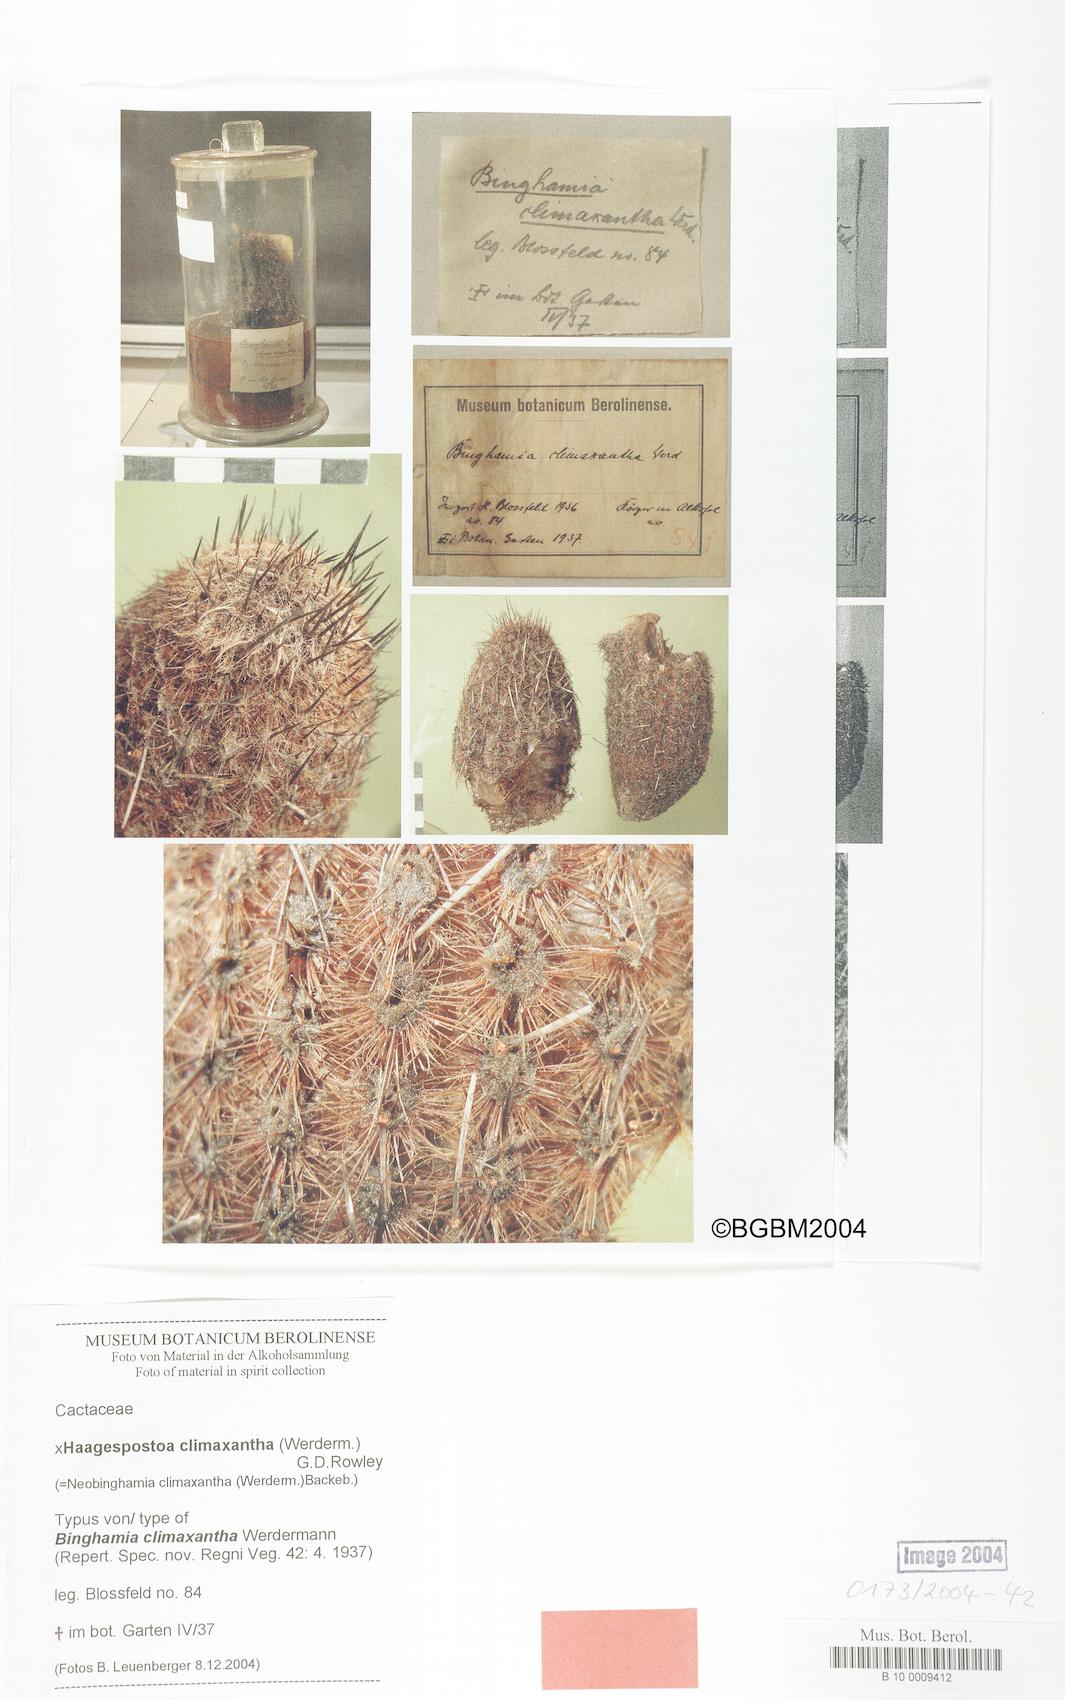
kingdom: Plantae
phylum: Tracheophyta
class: Magnoliopsida
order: Caryophyllales
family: Cactaceae
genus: Haagespostoa
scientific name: Haagespostoa climaxantha
